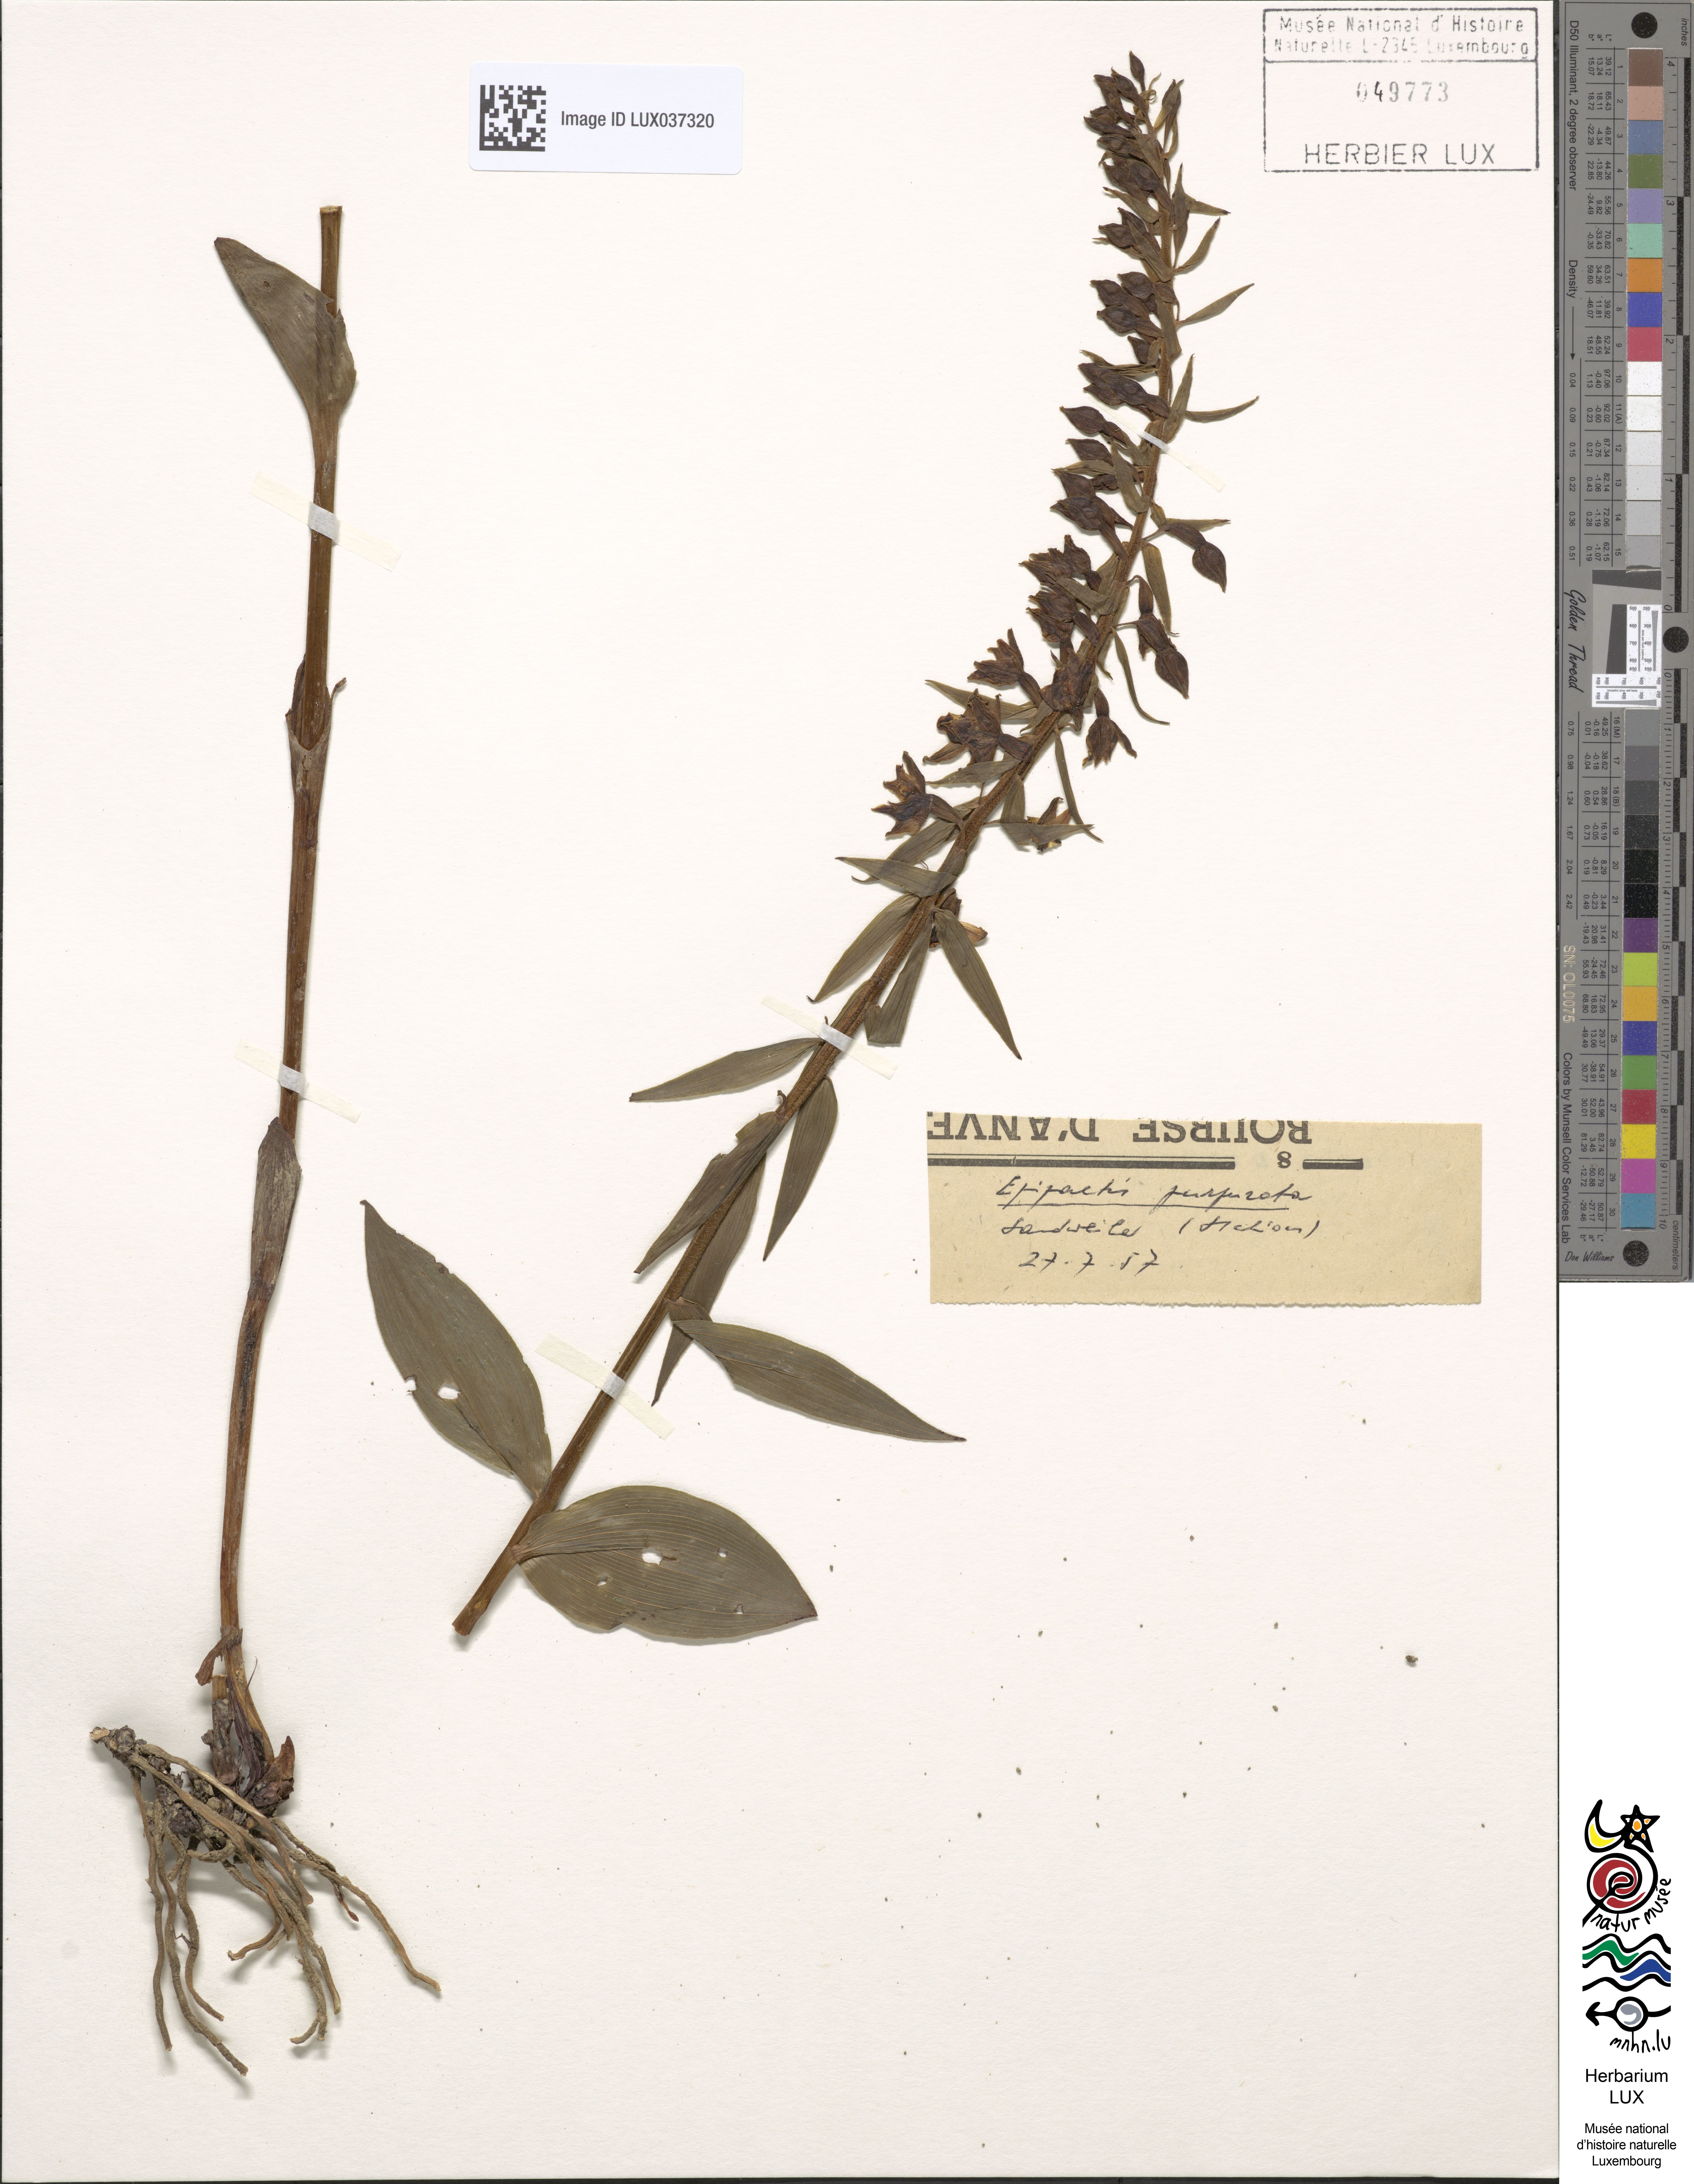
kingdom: Plantae
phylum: Tracheophyta
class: Liliopsida
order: Asparagales
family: Orchidaceae
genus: Epipactis
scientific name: Epipactis purpurata
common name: Violet helleborine
